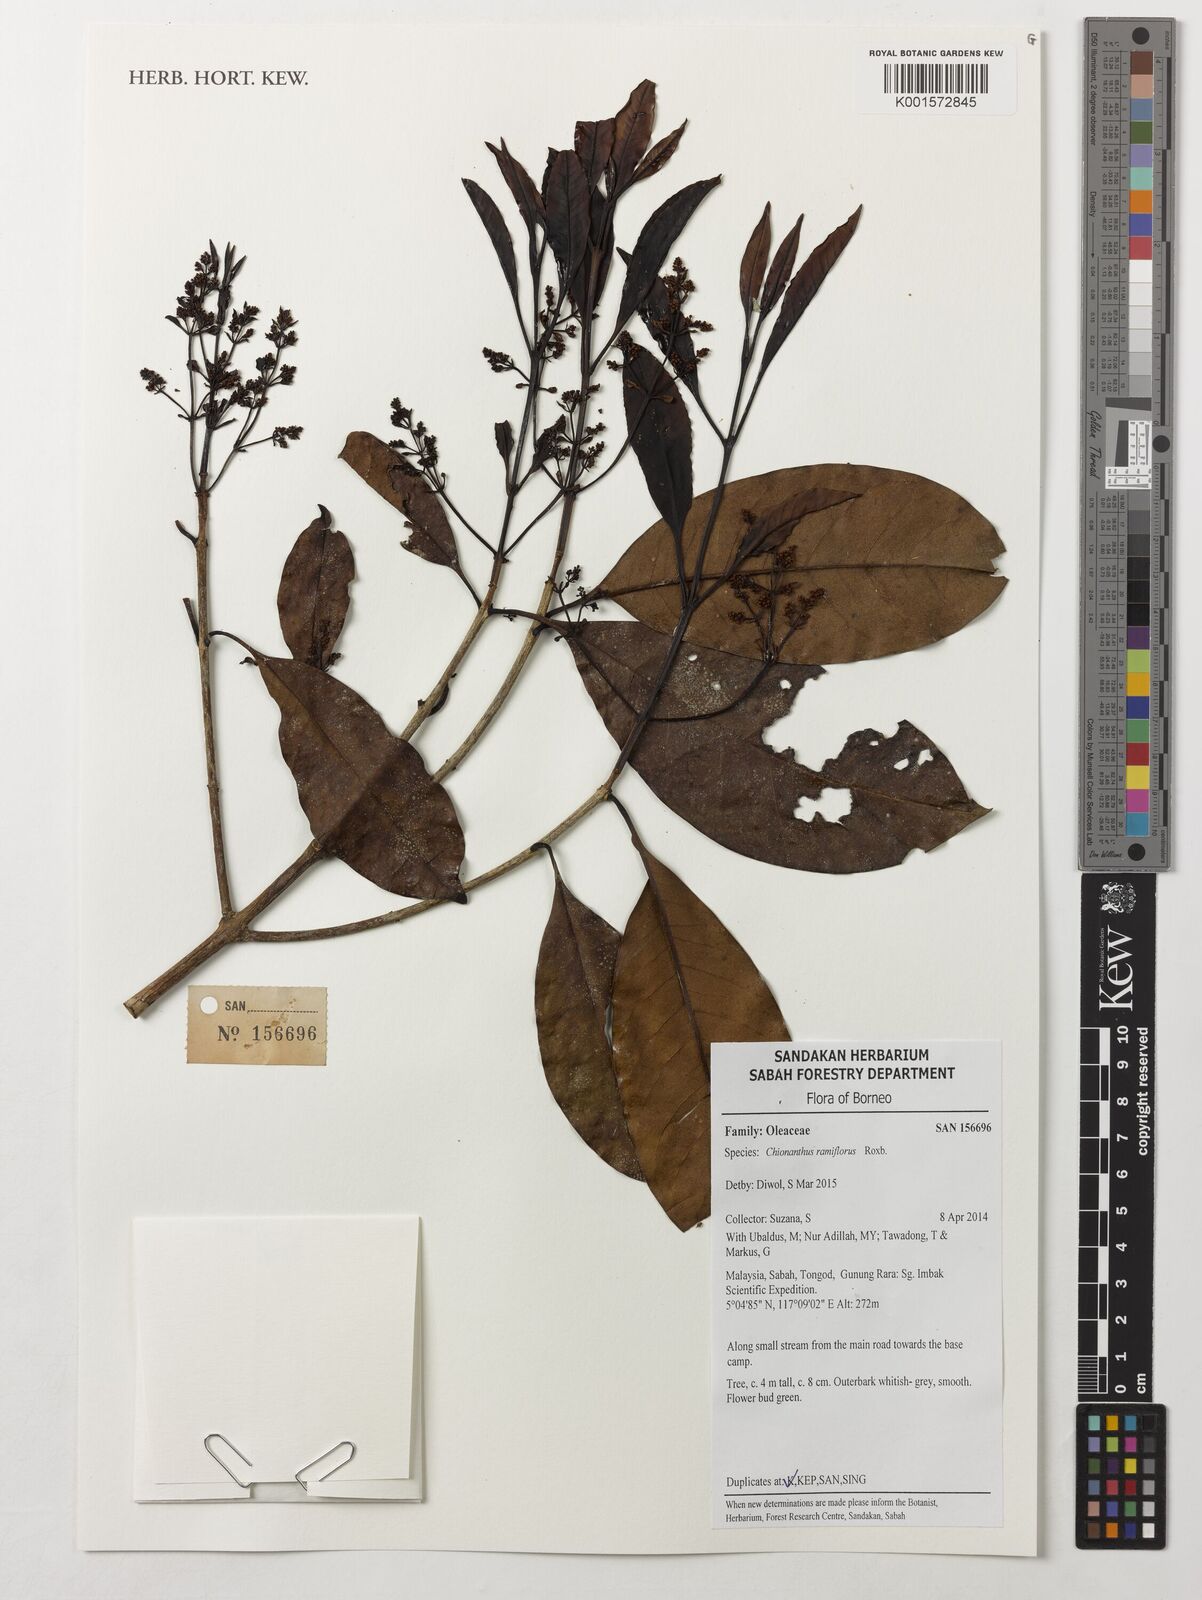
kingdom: Plantae
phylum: Tracheophyta
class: Magnoliopsida
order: Lamiales
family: Oleaceae
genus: Chionanthus
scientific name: Chionanthus ramiflorus
